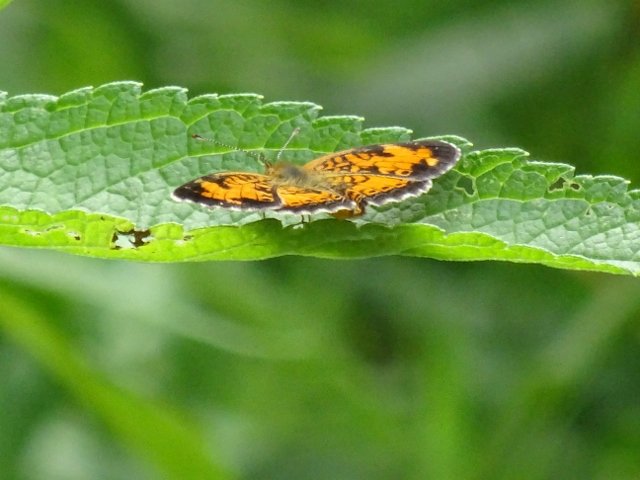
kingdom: Animalia
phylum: Arthropoda
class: Insecta
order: Lepidoptera
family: Nymphalidae
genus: Phyciodes
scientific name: Phyciodes tharos
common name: Northern Crescent
